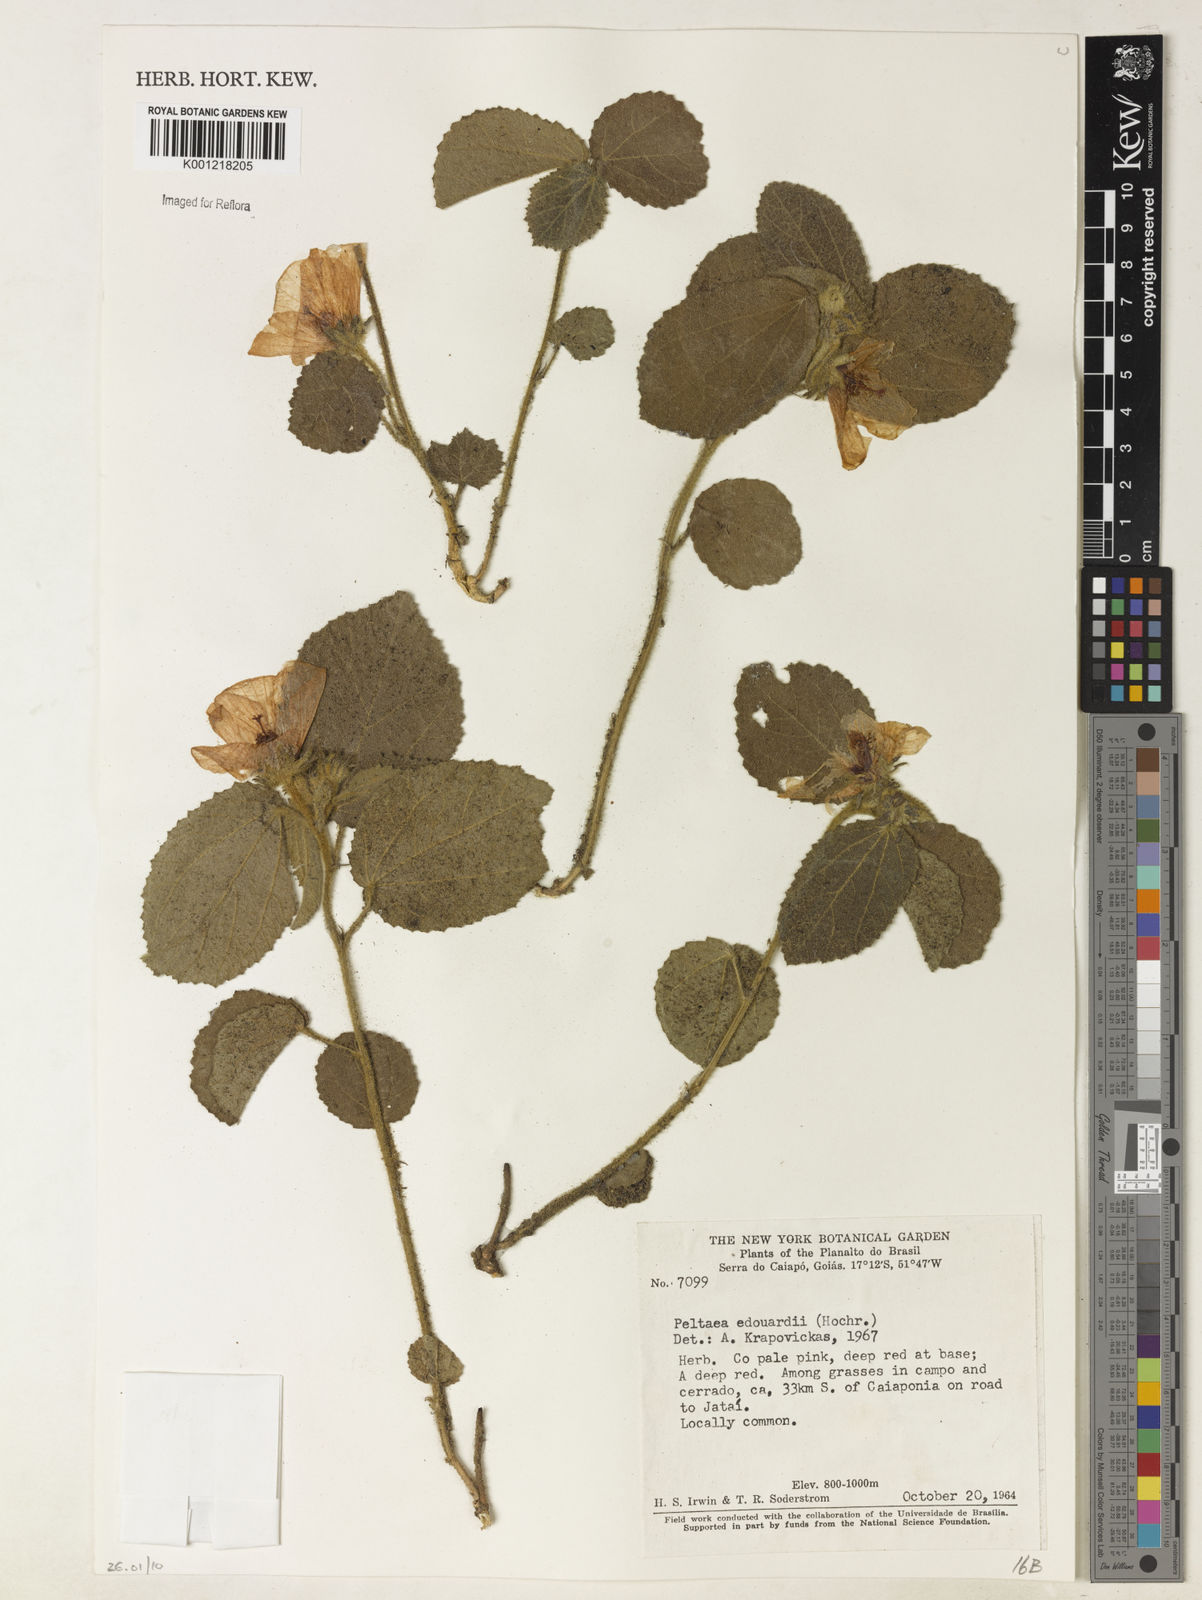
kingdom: Plantae
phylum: Tracheophyta
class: Magnoliopsida
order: Malvales
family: Malvaceae
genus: Peltaea
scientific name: Peltaea
